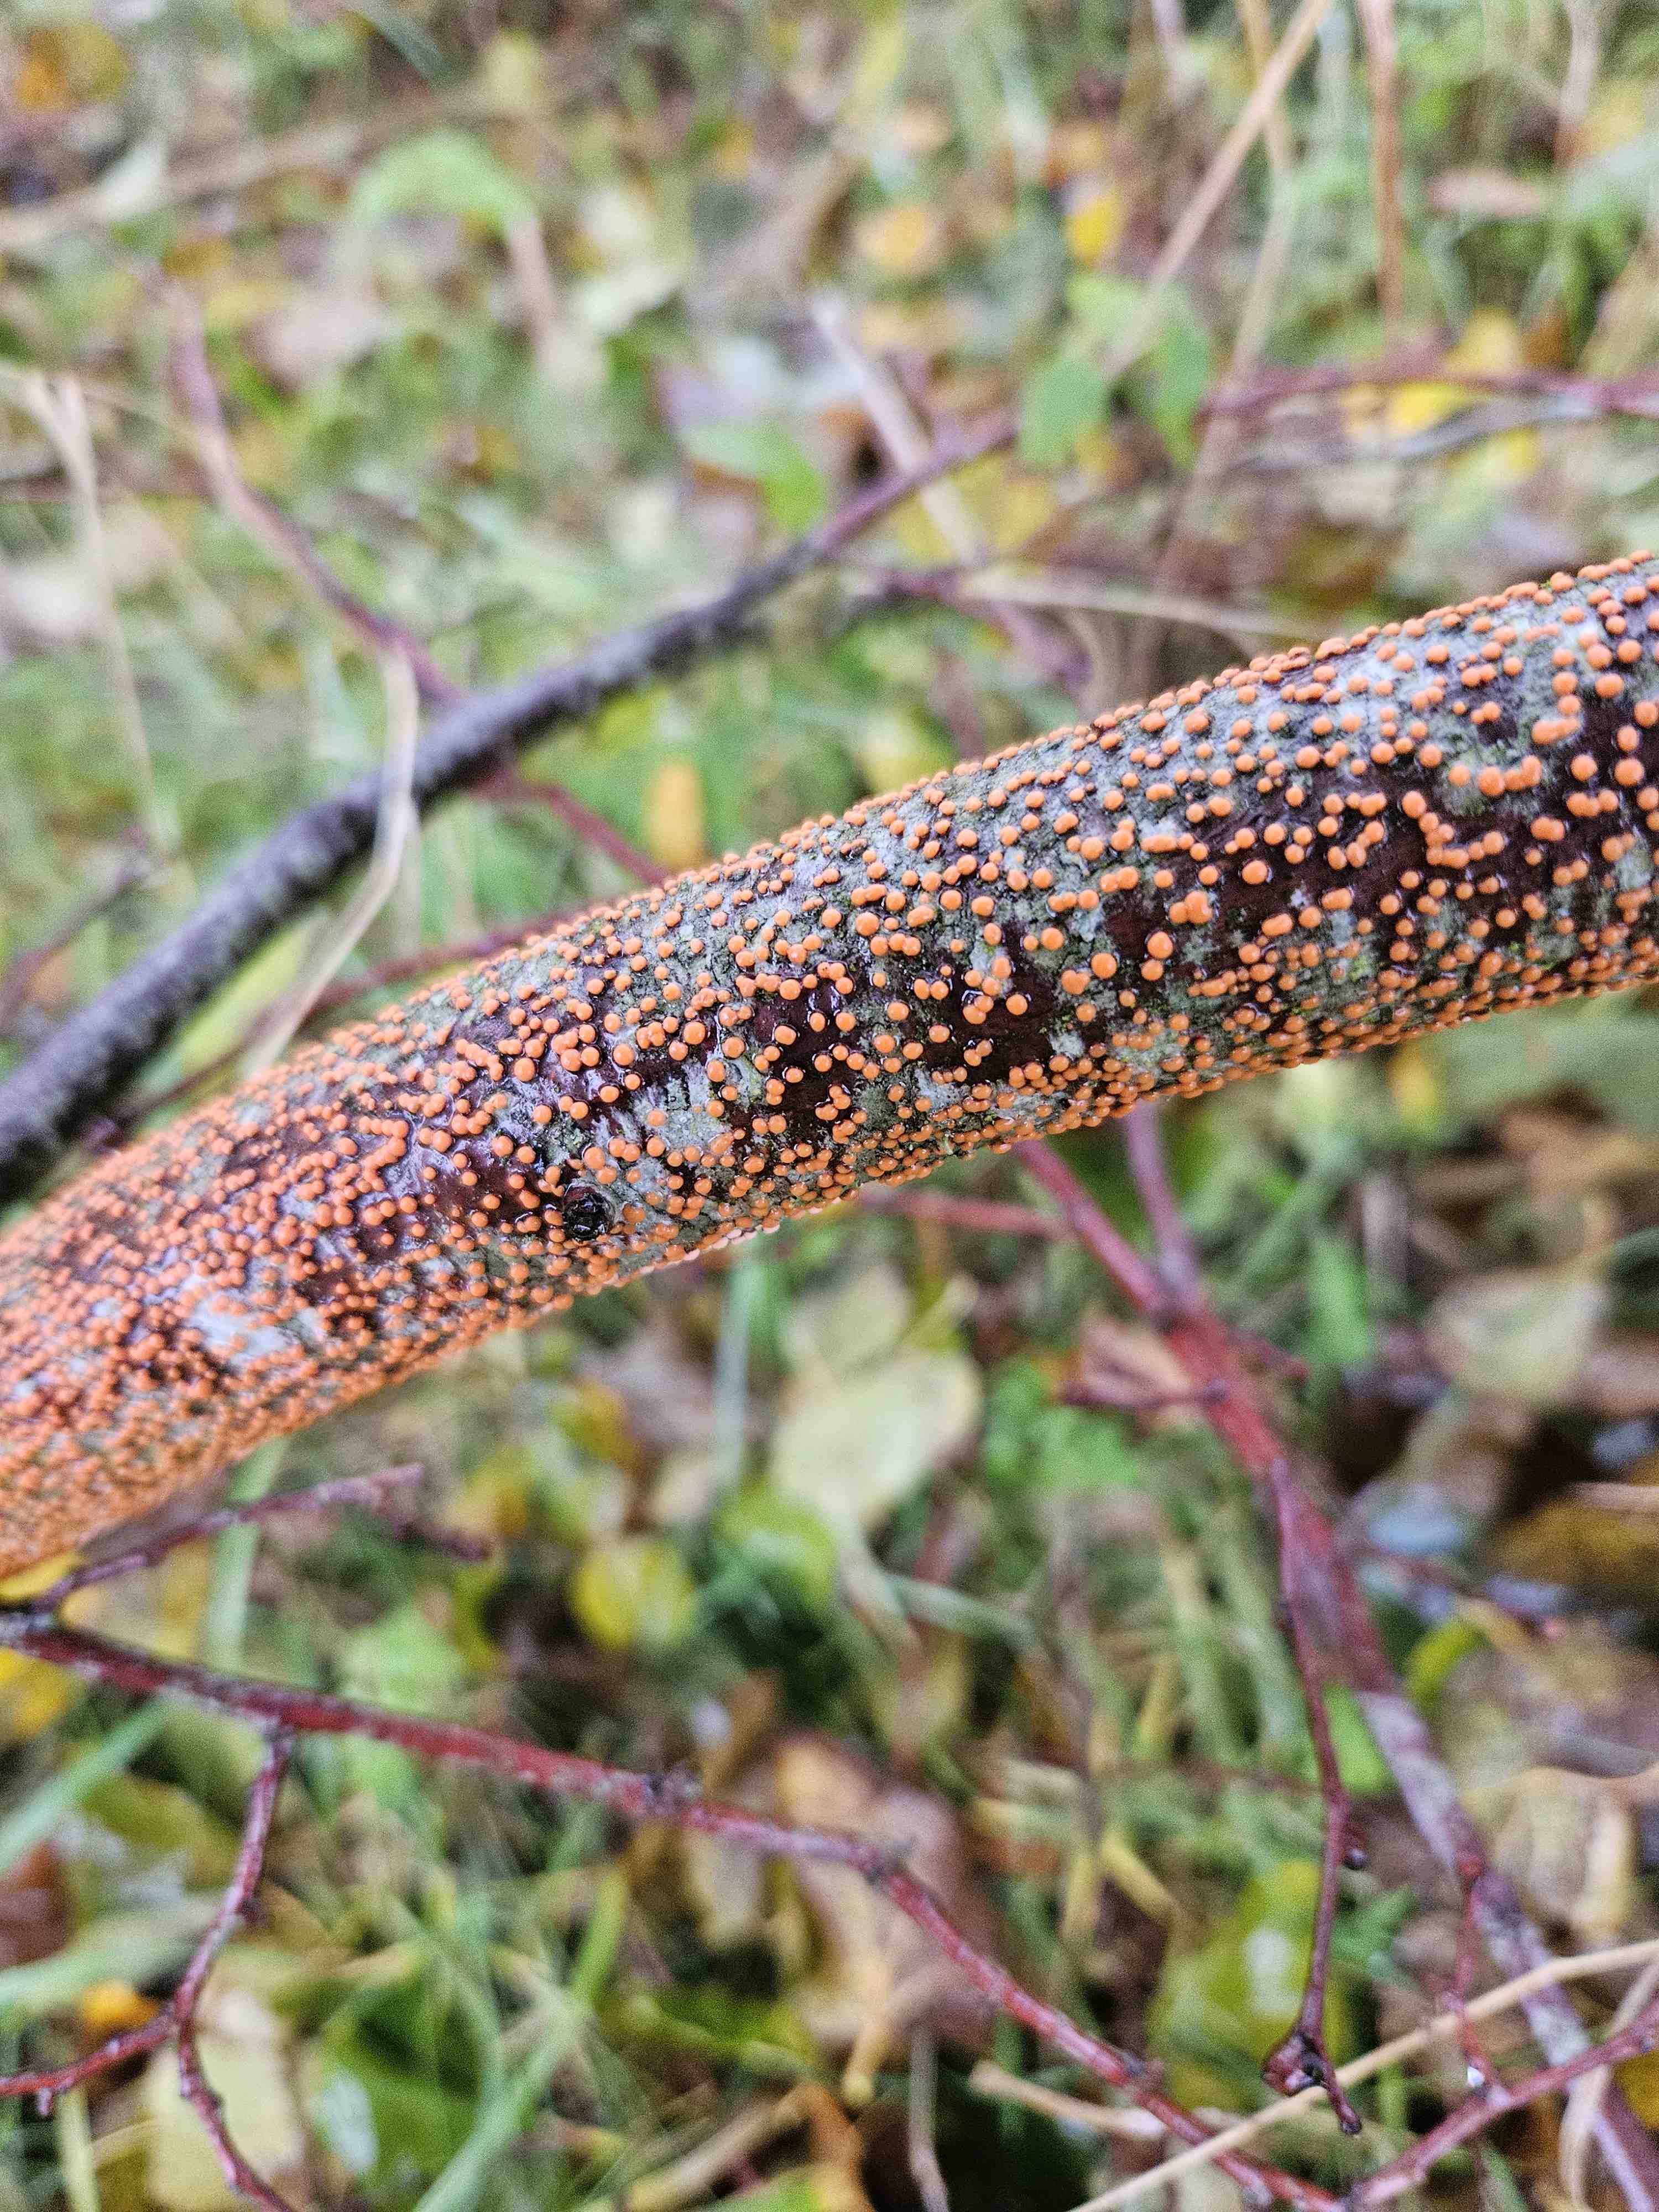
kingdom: Fungi
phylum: Ascomycota
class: Sordariomycetes
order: Hypocreales
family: Nectriaceae
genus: Nectria
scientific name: Nectria cinnabarina
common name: almindelig cinnobersvamp
